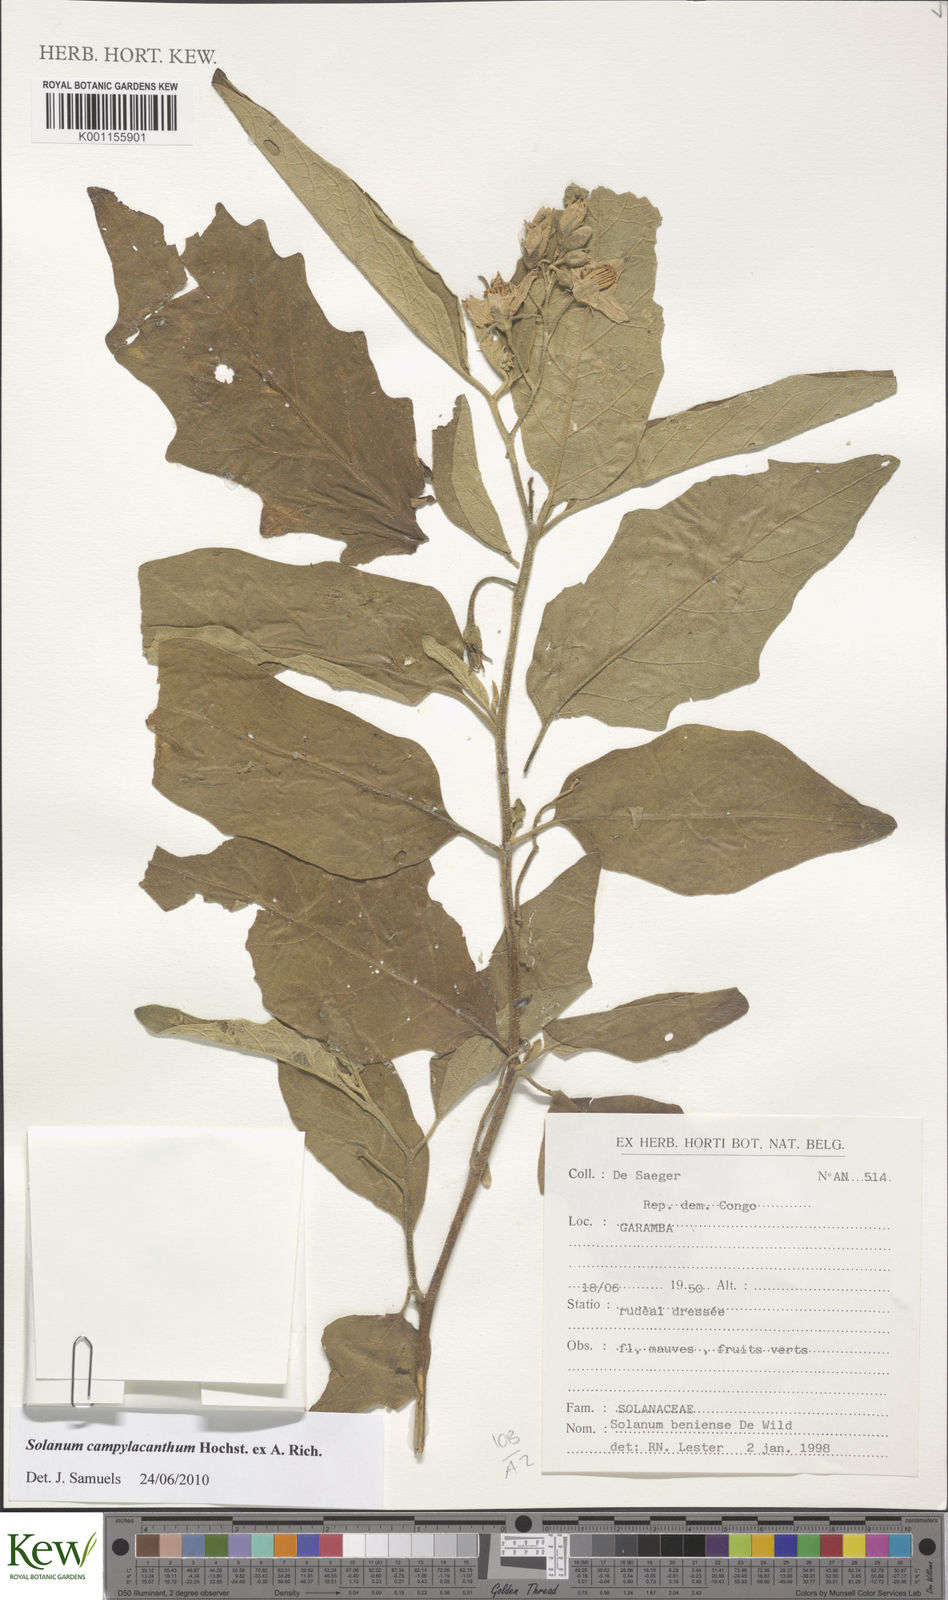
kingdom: Plantae
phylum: Tracheophyta
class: Magnoliopsida
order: Solanales
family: Solanaceae
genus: Solanum
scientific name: Solanum campylacanthum
